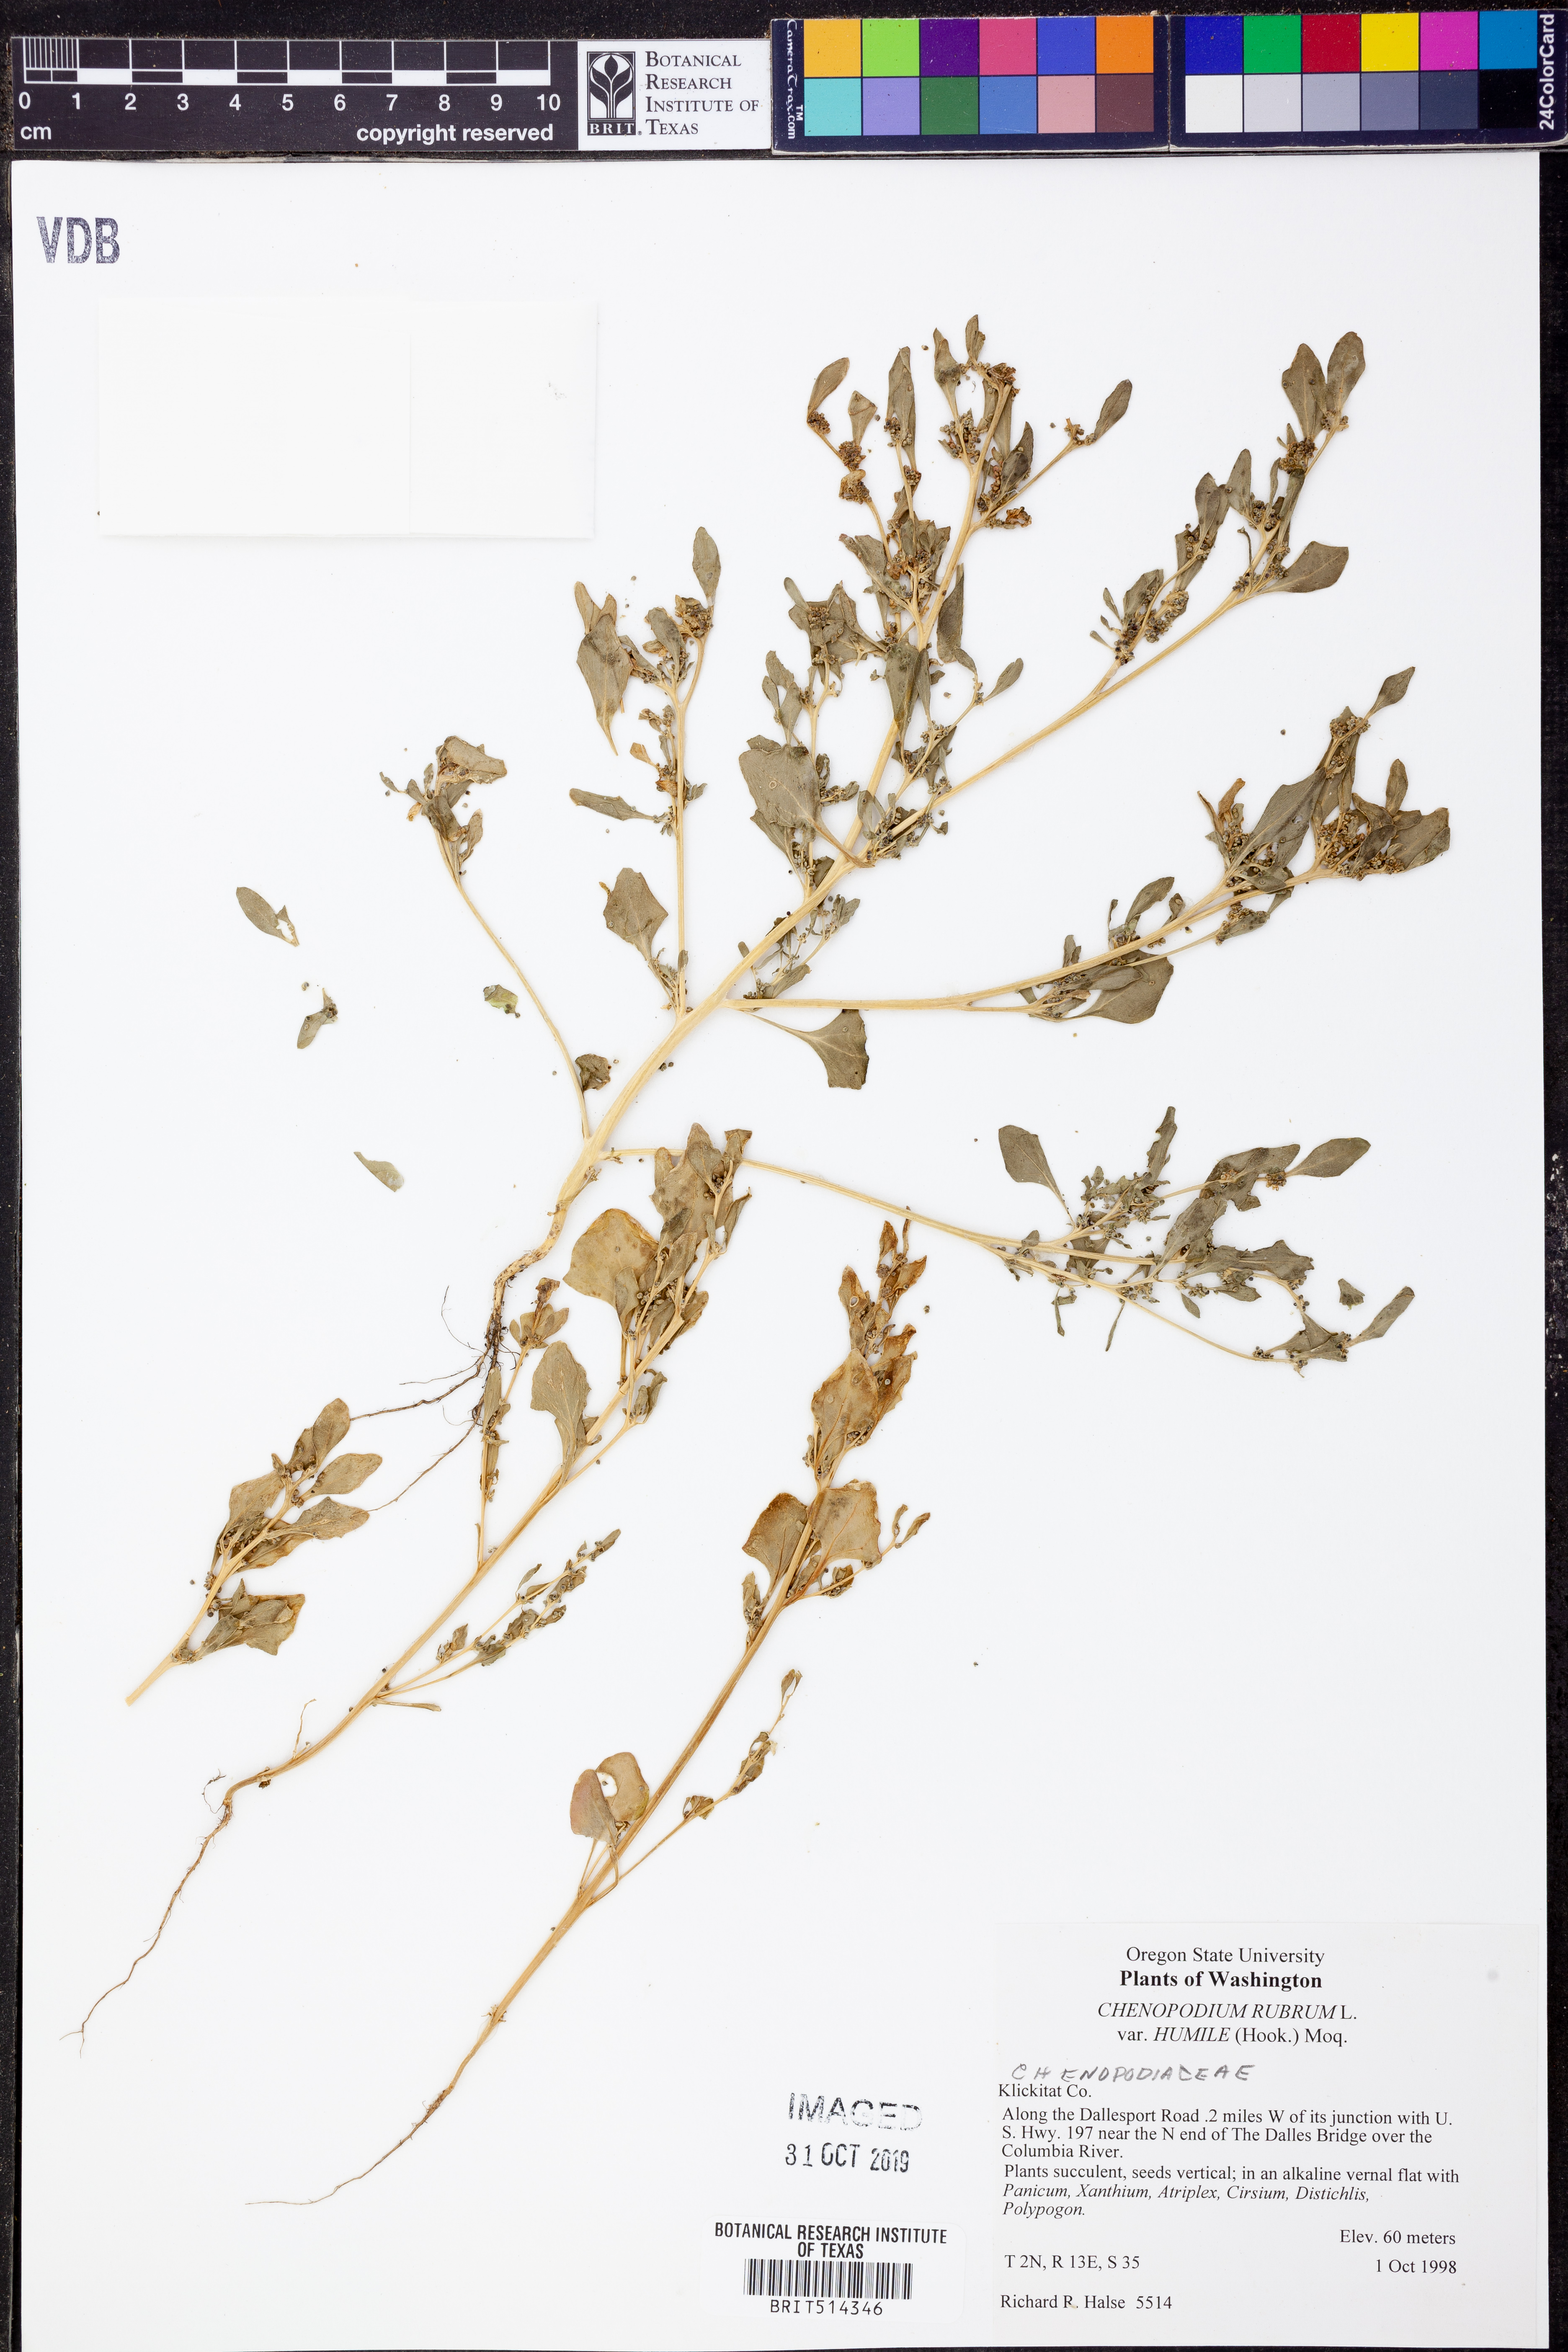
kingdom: Plantae
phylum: Tracheophyta
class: Magnoliopsida
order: Caryophyllales
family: Amaranthaceae
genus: Oxybasis
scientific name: Oxybasis rubra
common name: Red goosefoot
